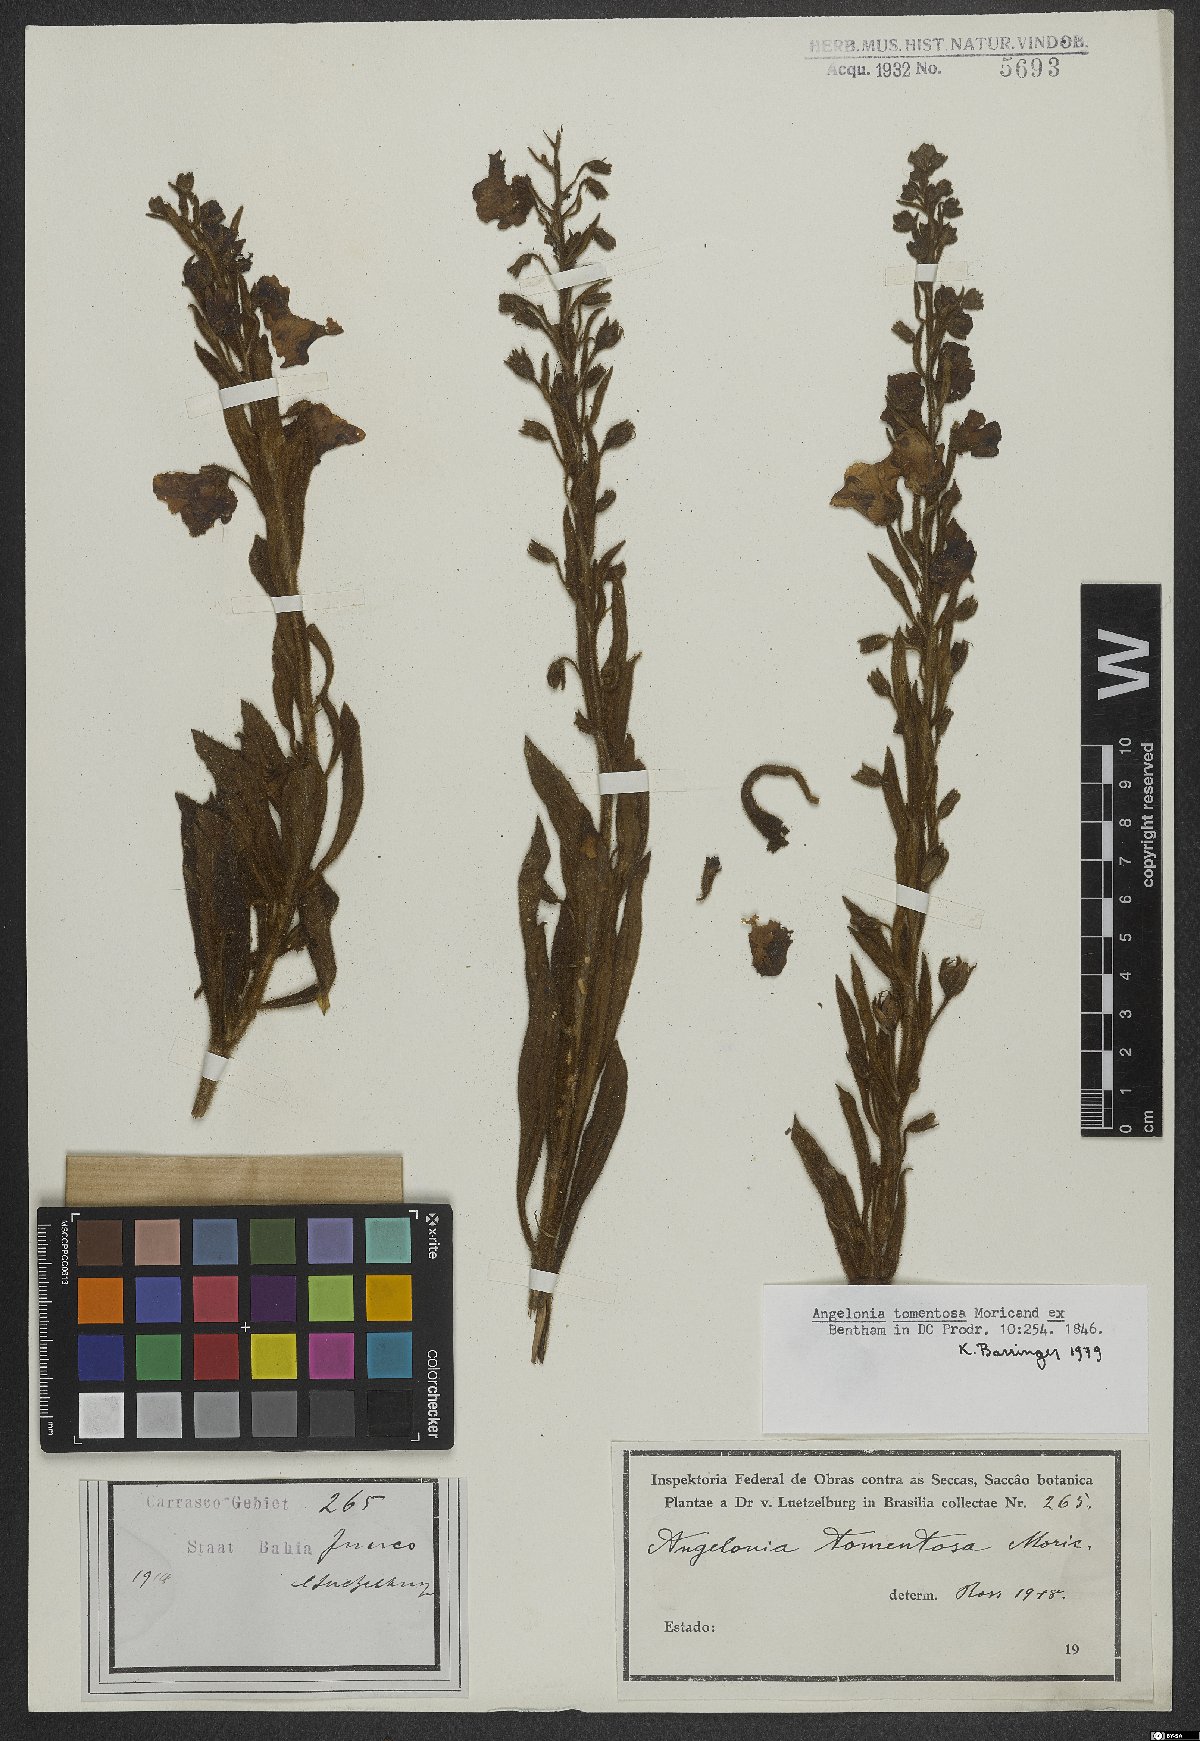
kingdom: Plantae
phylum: Tracheophyta
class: Magnoliopsida
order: Lamiales
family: Plantaginaceae
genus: Angelonia
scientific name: Angelonia tomentosa
